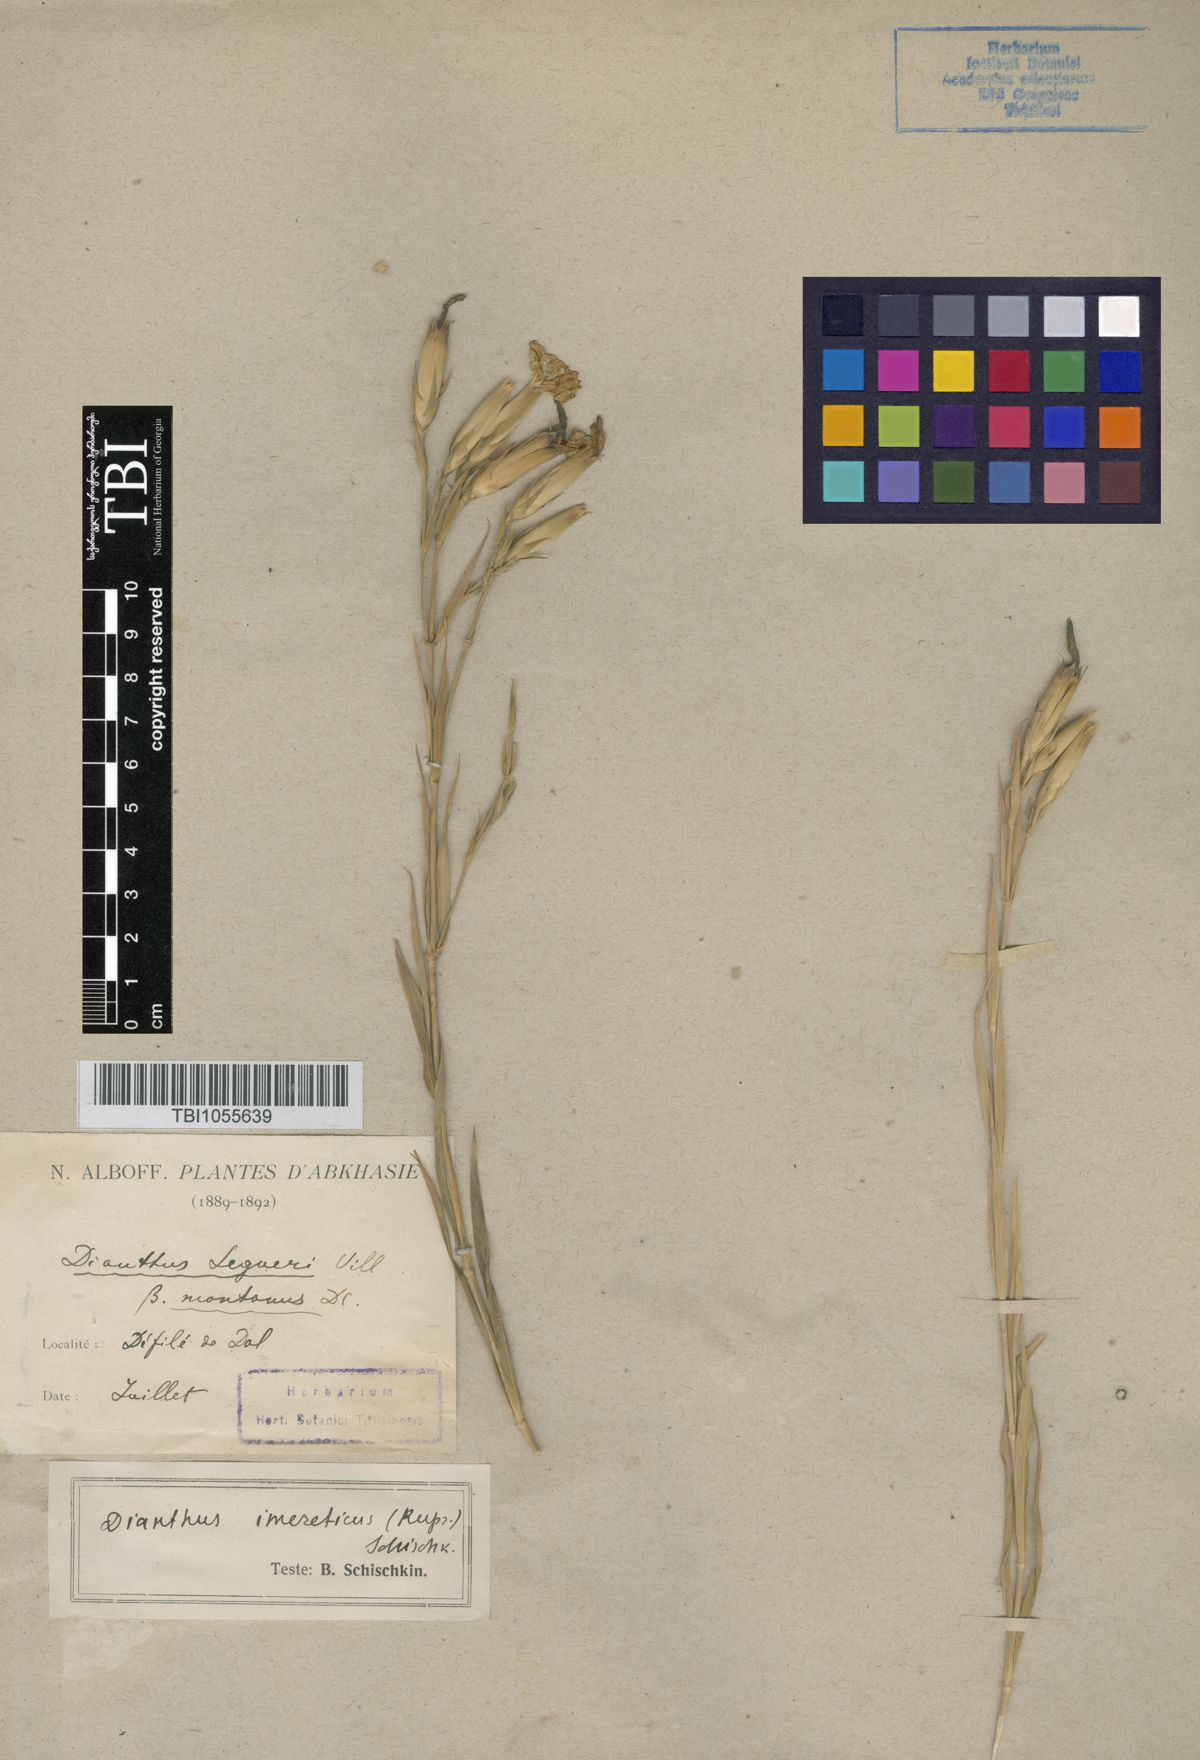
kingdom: Plantae
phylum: Tracheophyta
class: Magnoliopsida
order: Caryophyllales
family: Caryophyllaceae
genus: Dianthus
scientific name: Dianthus imereticus
